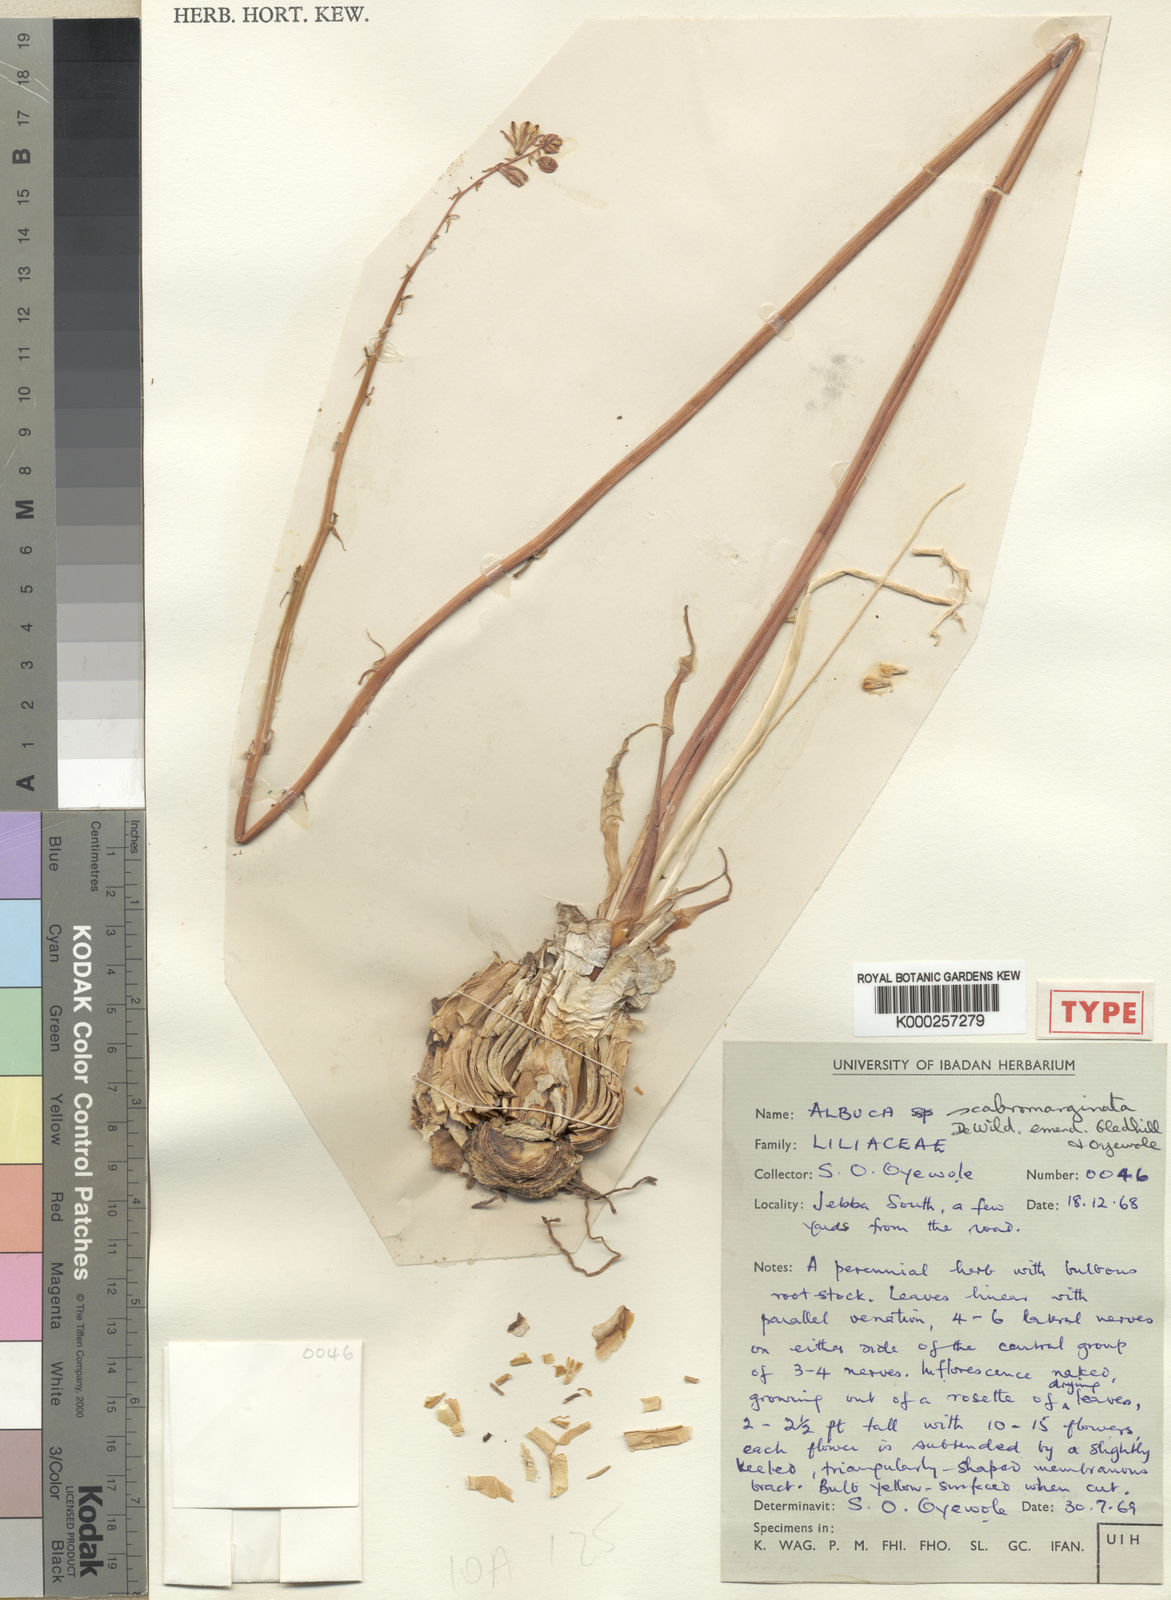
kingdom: Plantae
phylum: Tracheophyta
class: Liliopsida
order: Asparagales
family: Asparagaceae
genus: Albuca
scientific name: Albuca scabromarginata
